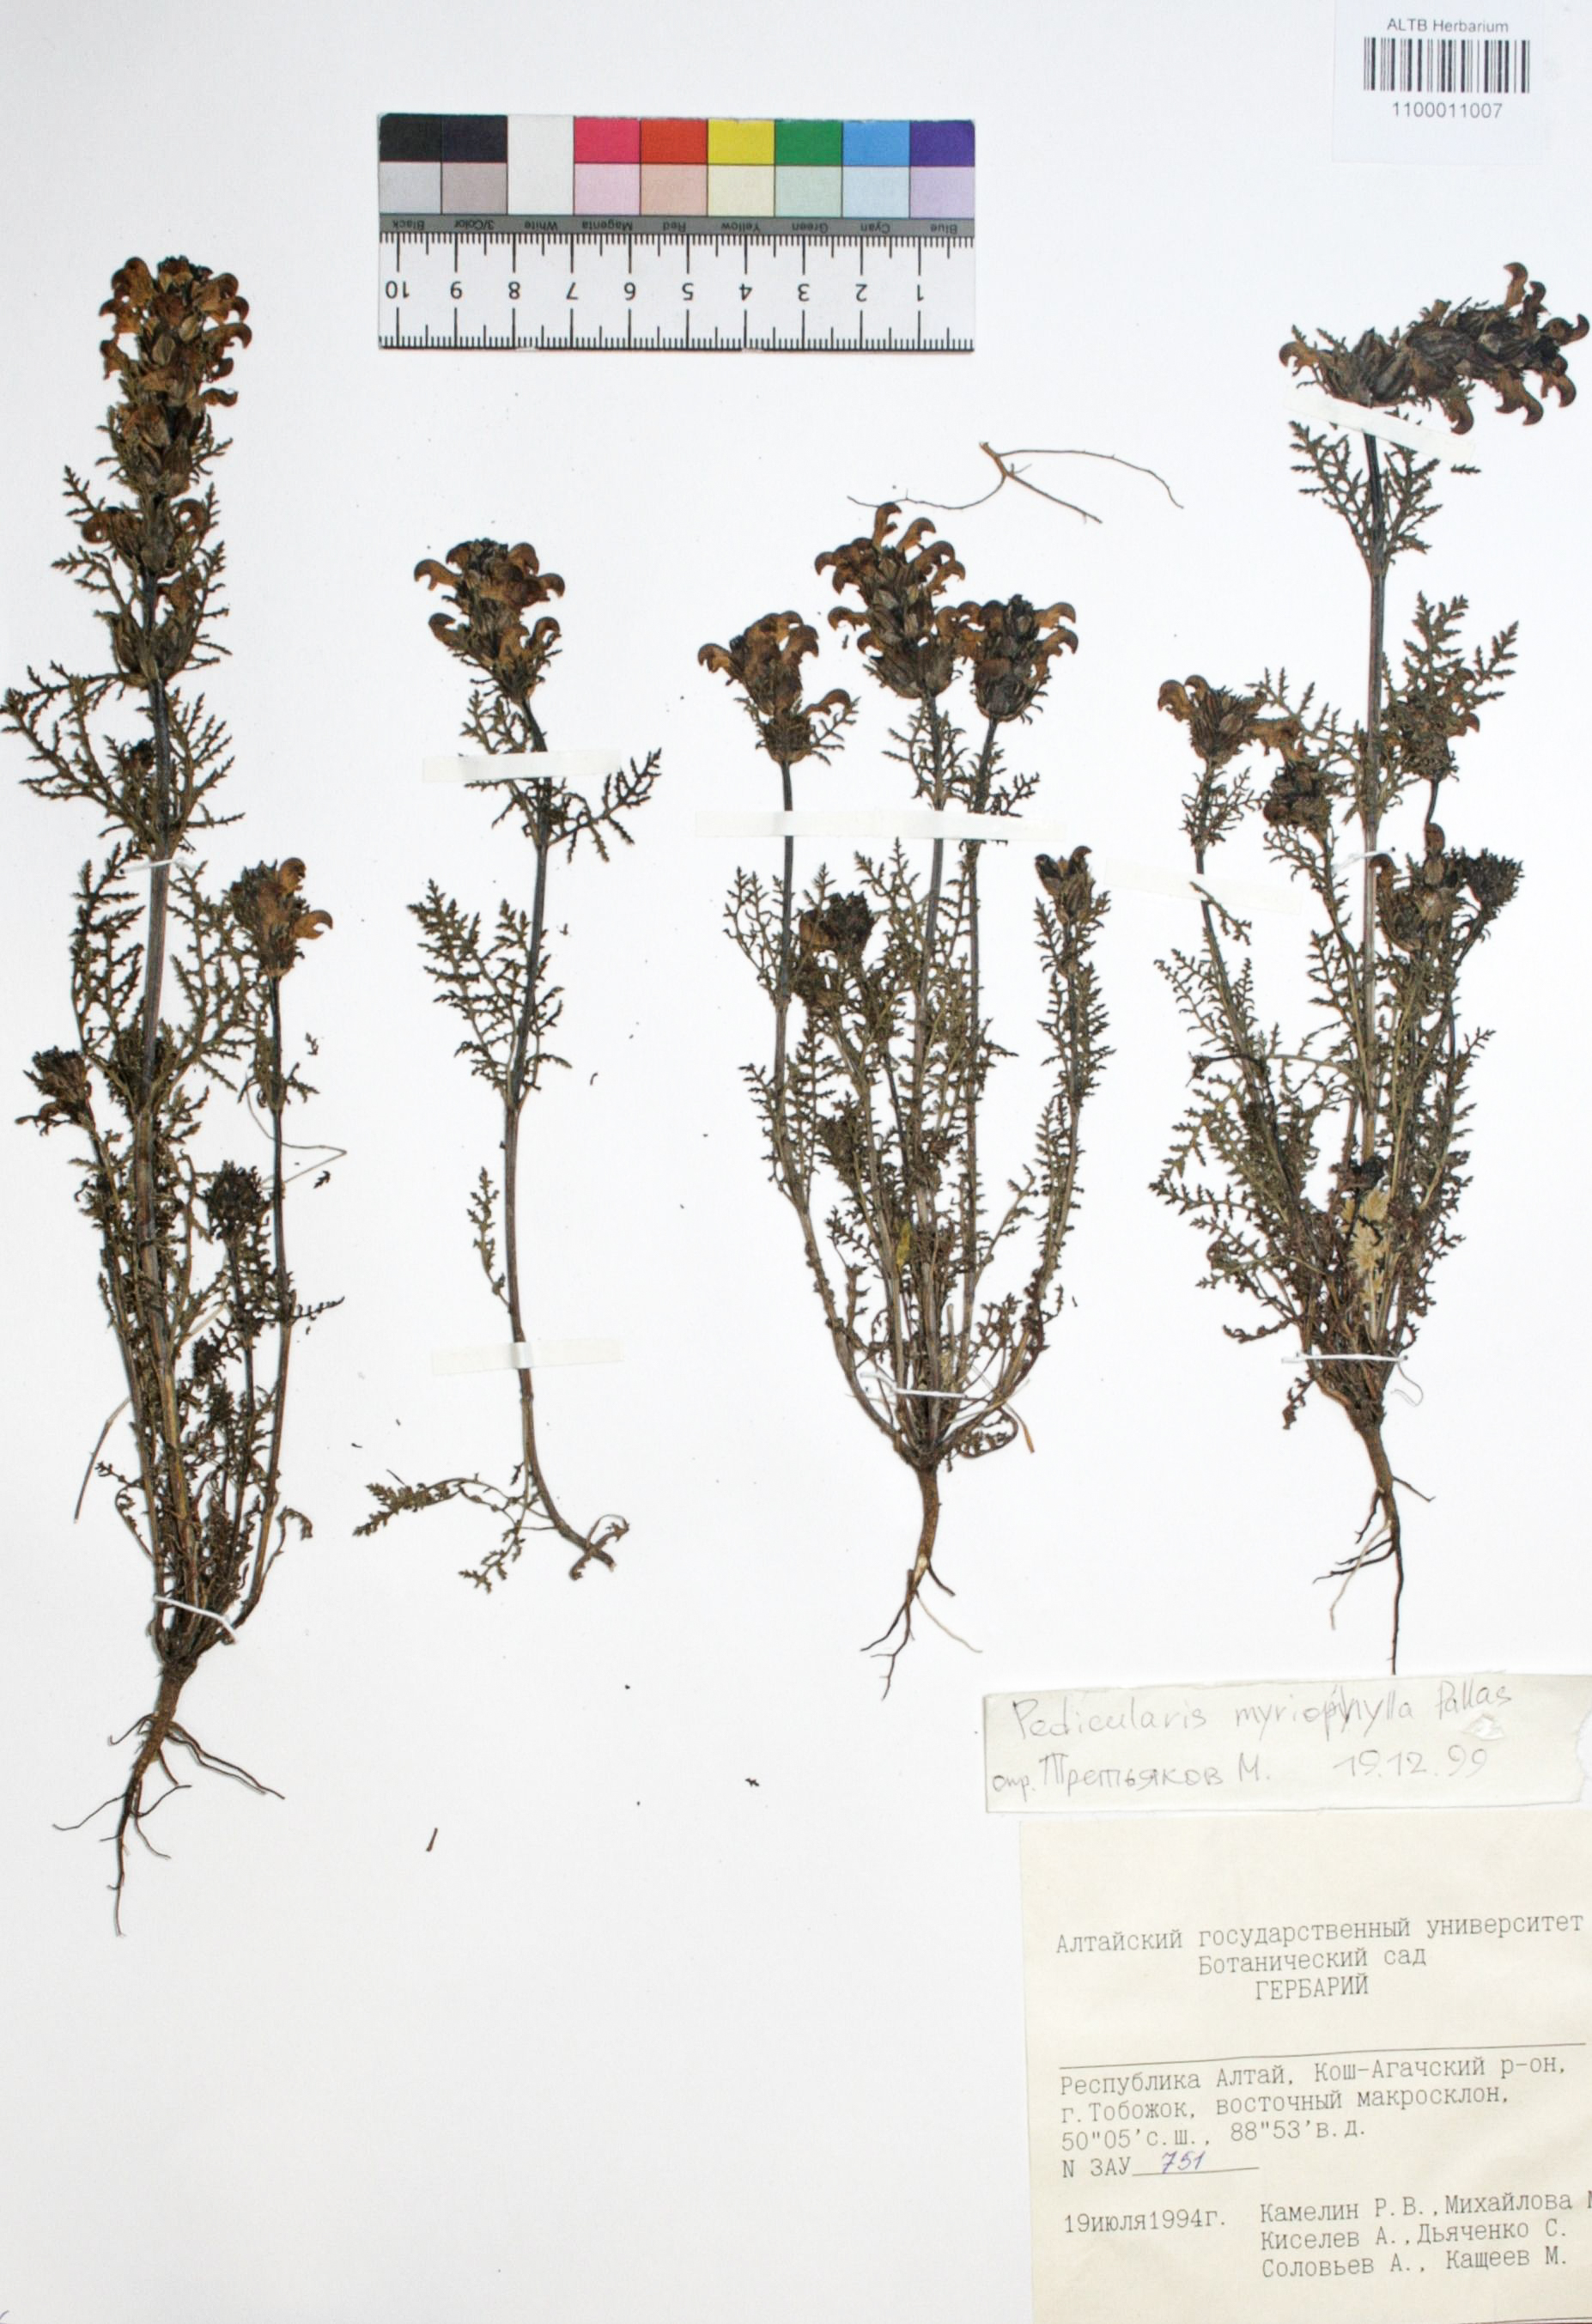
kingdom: Plantae
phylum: Tracheophyta
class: Magnoliopsida
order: Lamiales
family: Orobanchaceae
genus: Pedicularis
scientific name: Pedicularis myriophylla
